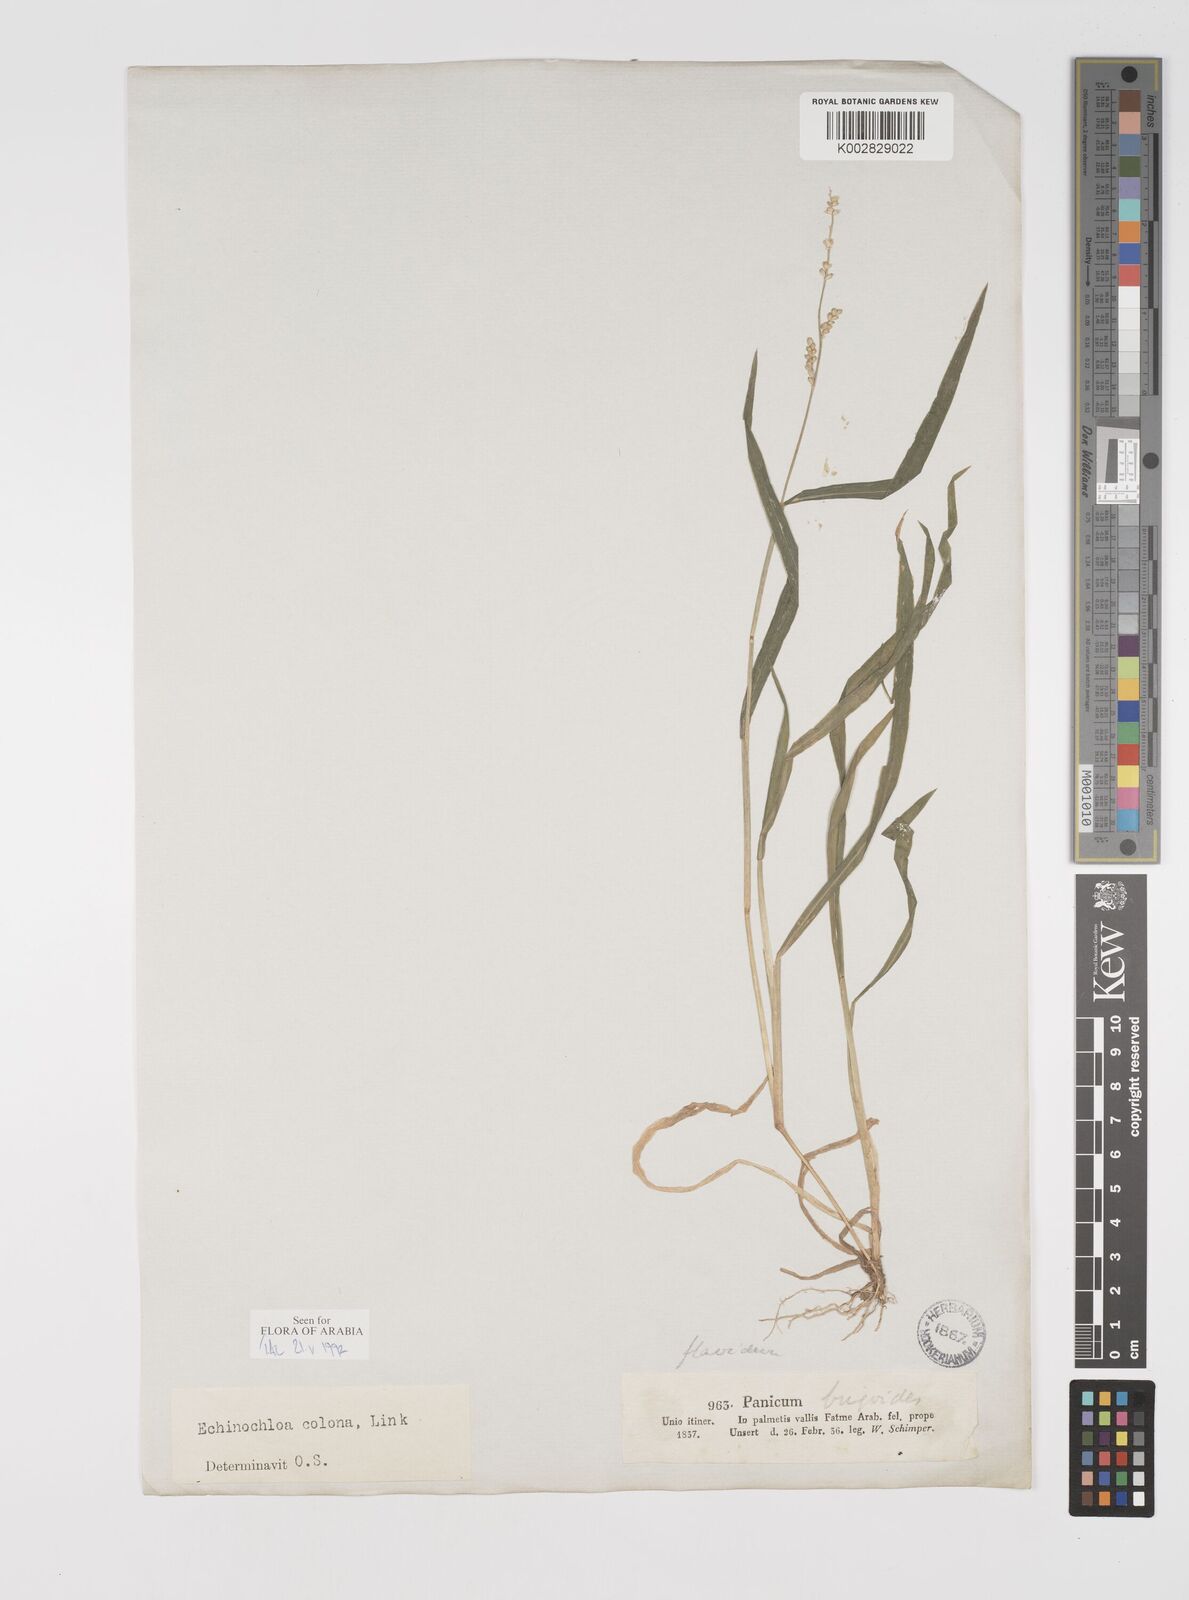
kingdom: Plantae
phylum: Tracheophyta
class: Liliopsida
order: Poales
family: Poaceae
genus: Echinochloa
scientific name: Echinochloa colonum
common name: Jungle rice
